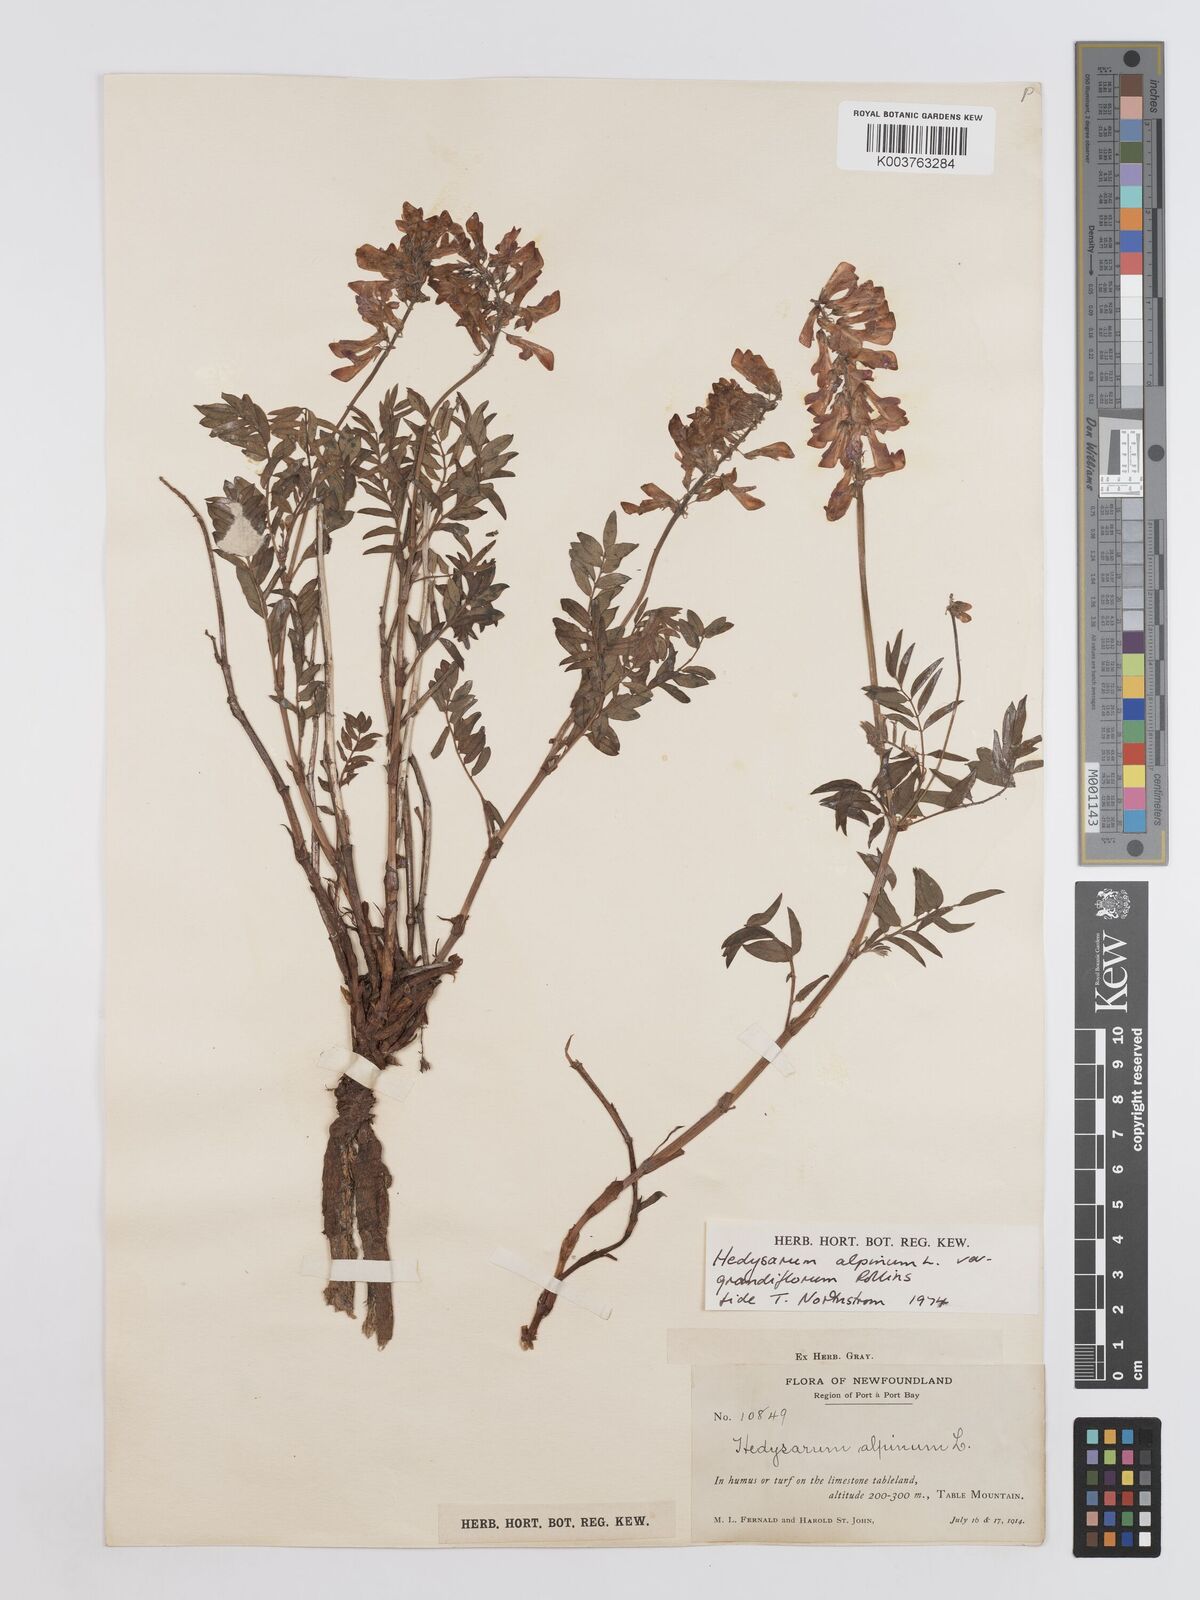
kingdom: Plantae
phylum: Tracheophyta
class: Magnoliopsida
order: Fabales
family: Fabaceae
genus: Hedysarum
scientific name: Hedysarum alpinum
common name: Alpine sweet-vetch
